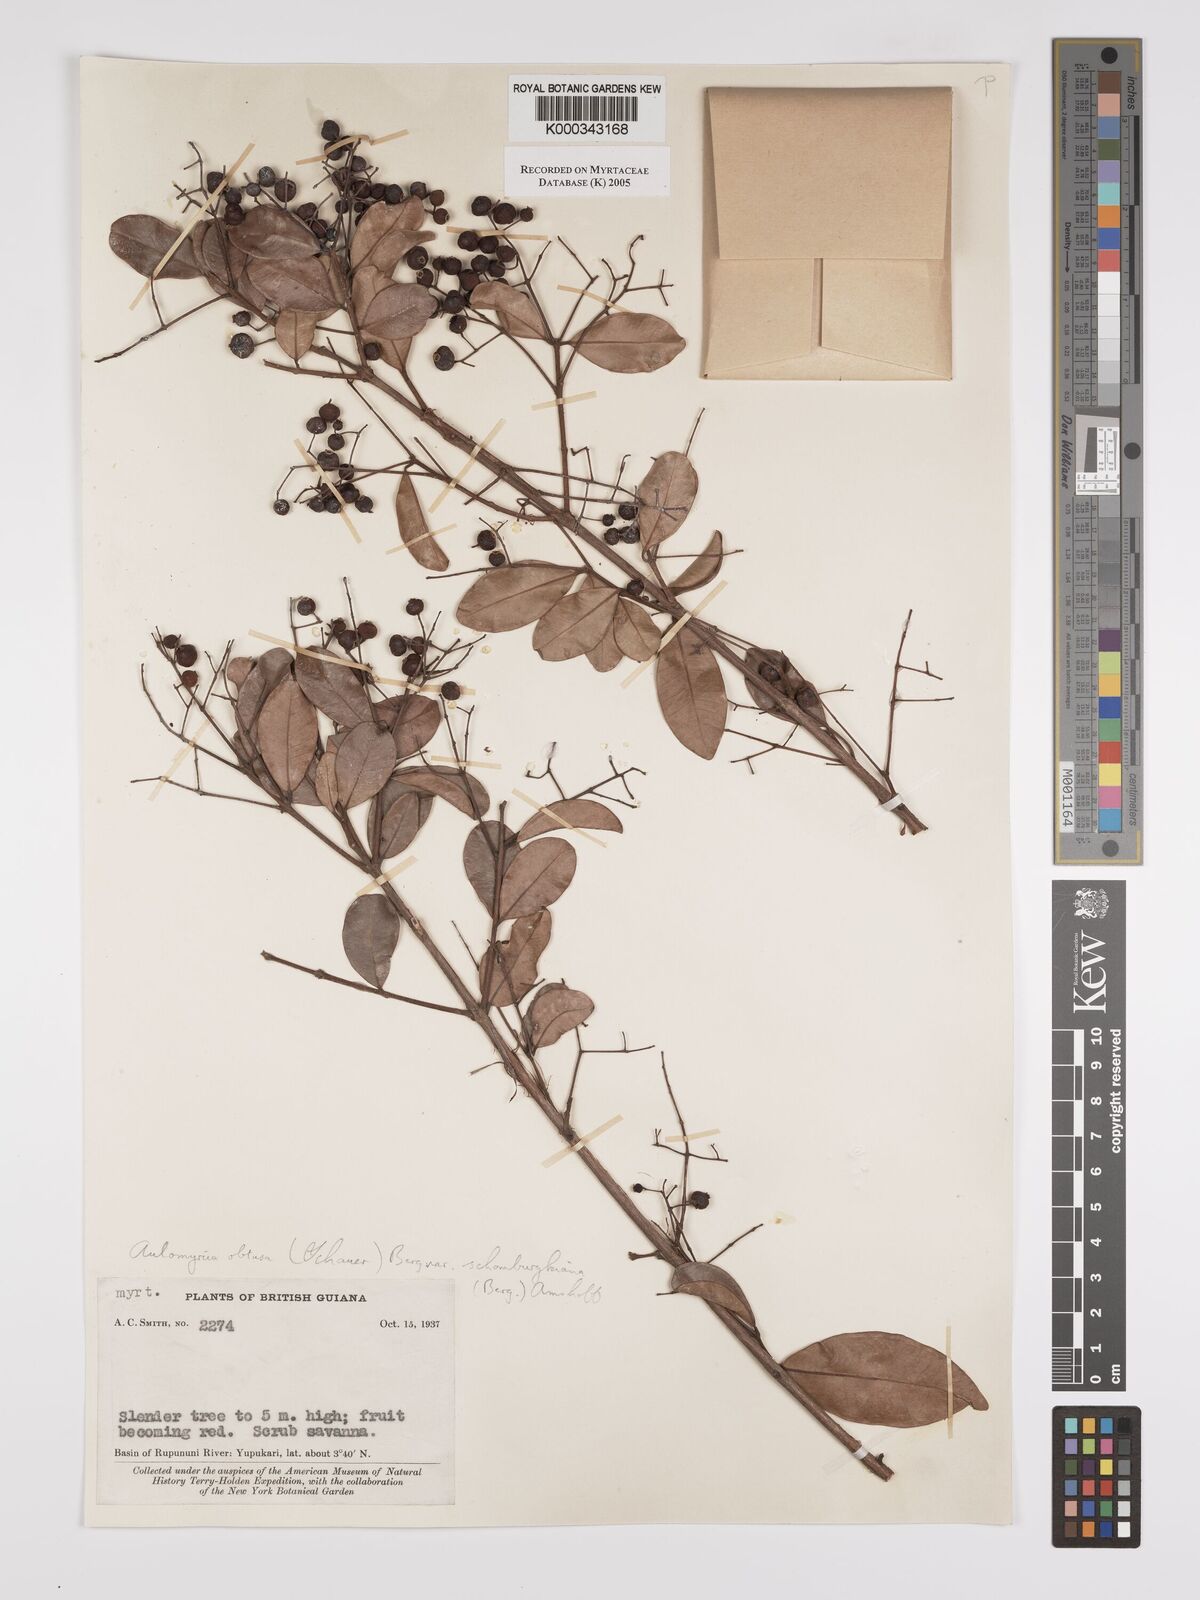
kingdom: Plantae
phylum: Tracheophyta
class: Magnoliopsida
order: Myrtales
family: Myrtaceae
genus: Myrcia
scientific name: Myrcia guianensis
